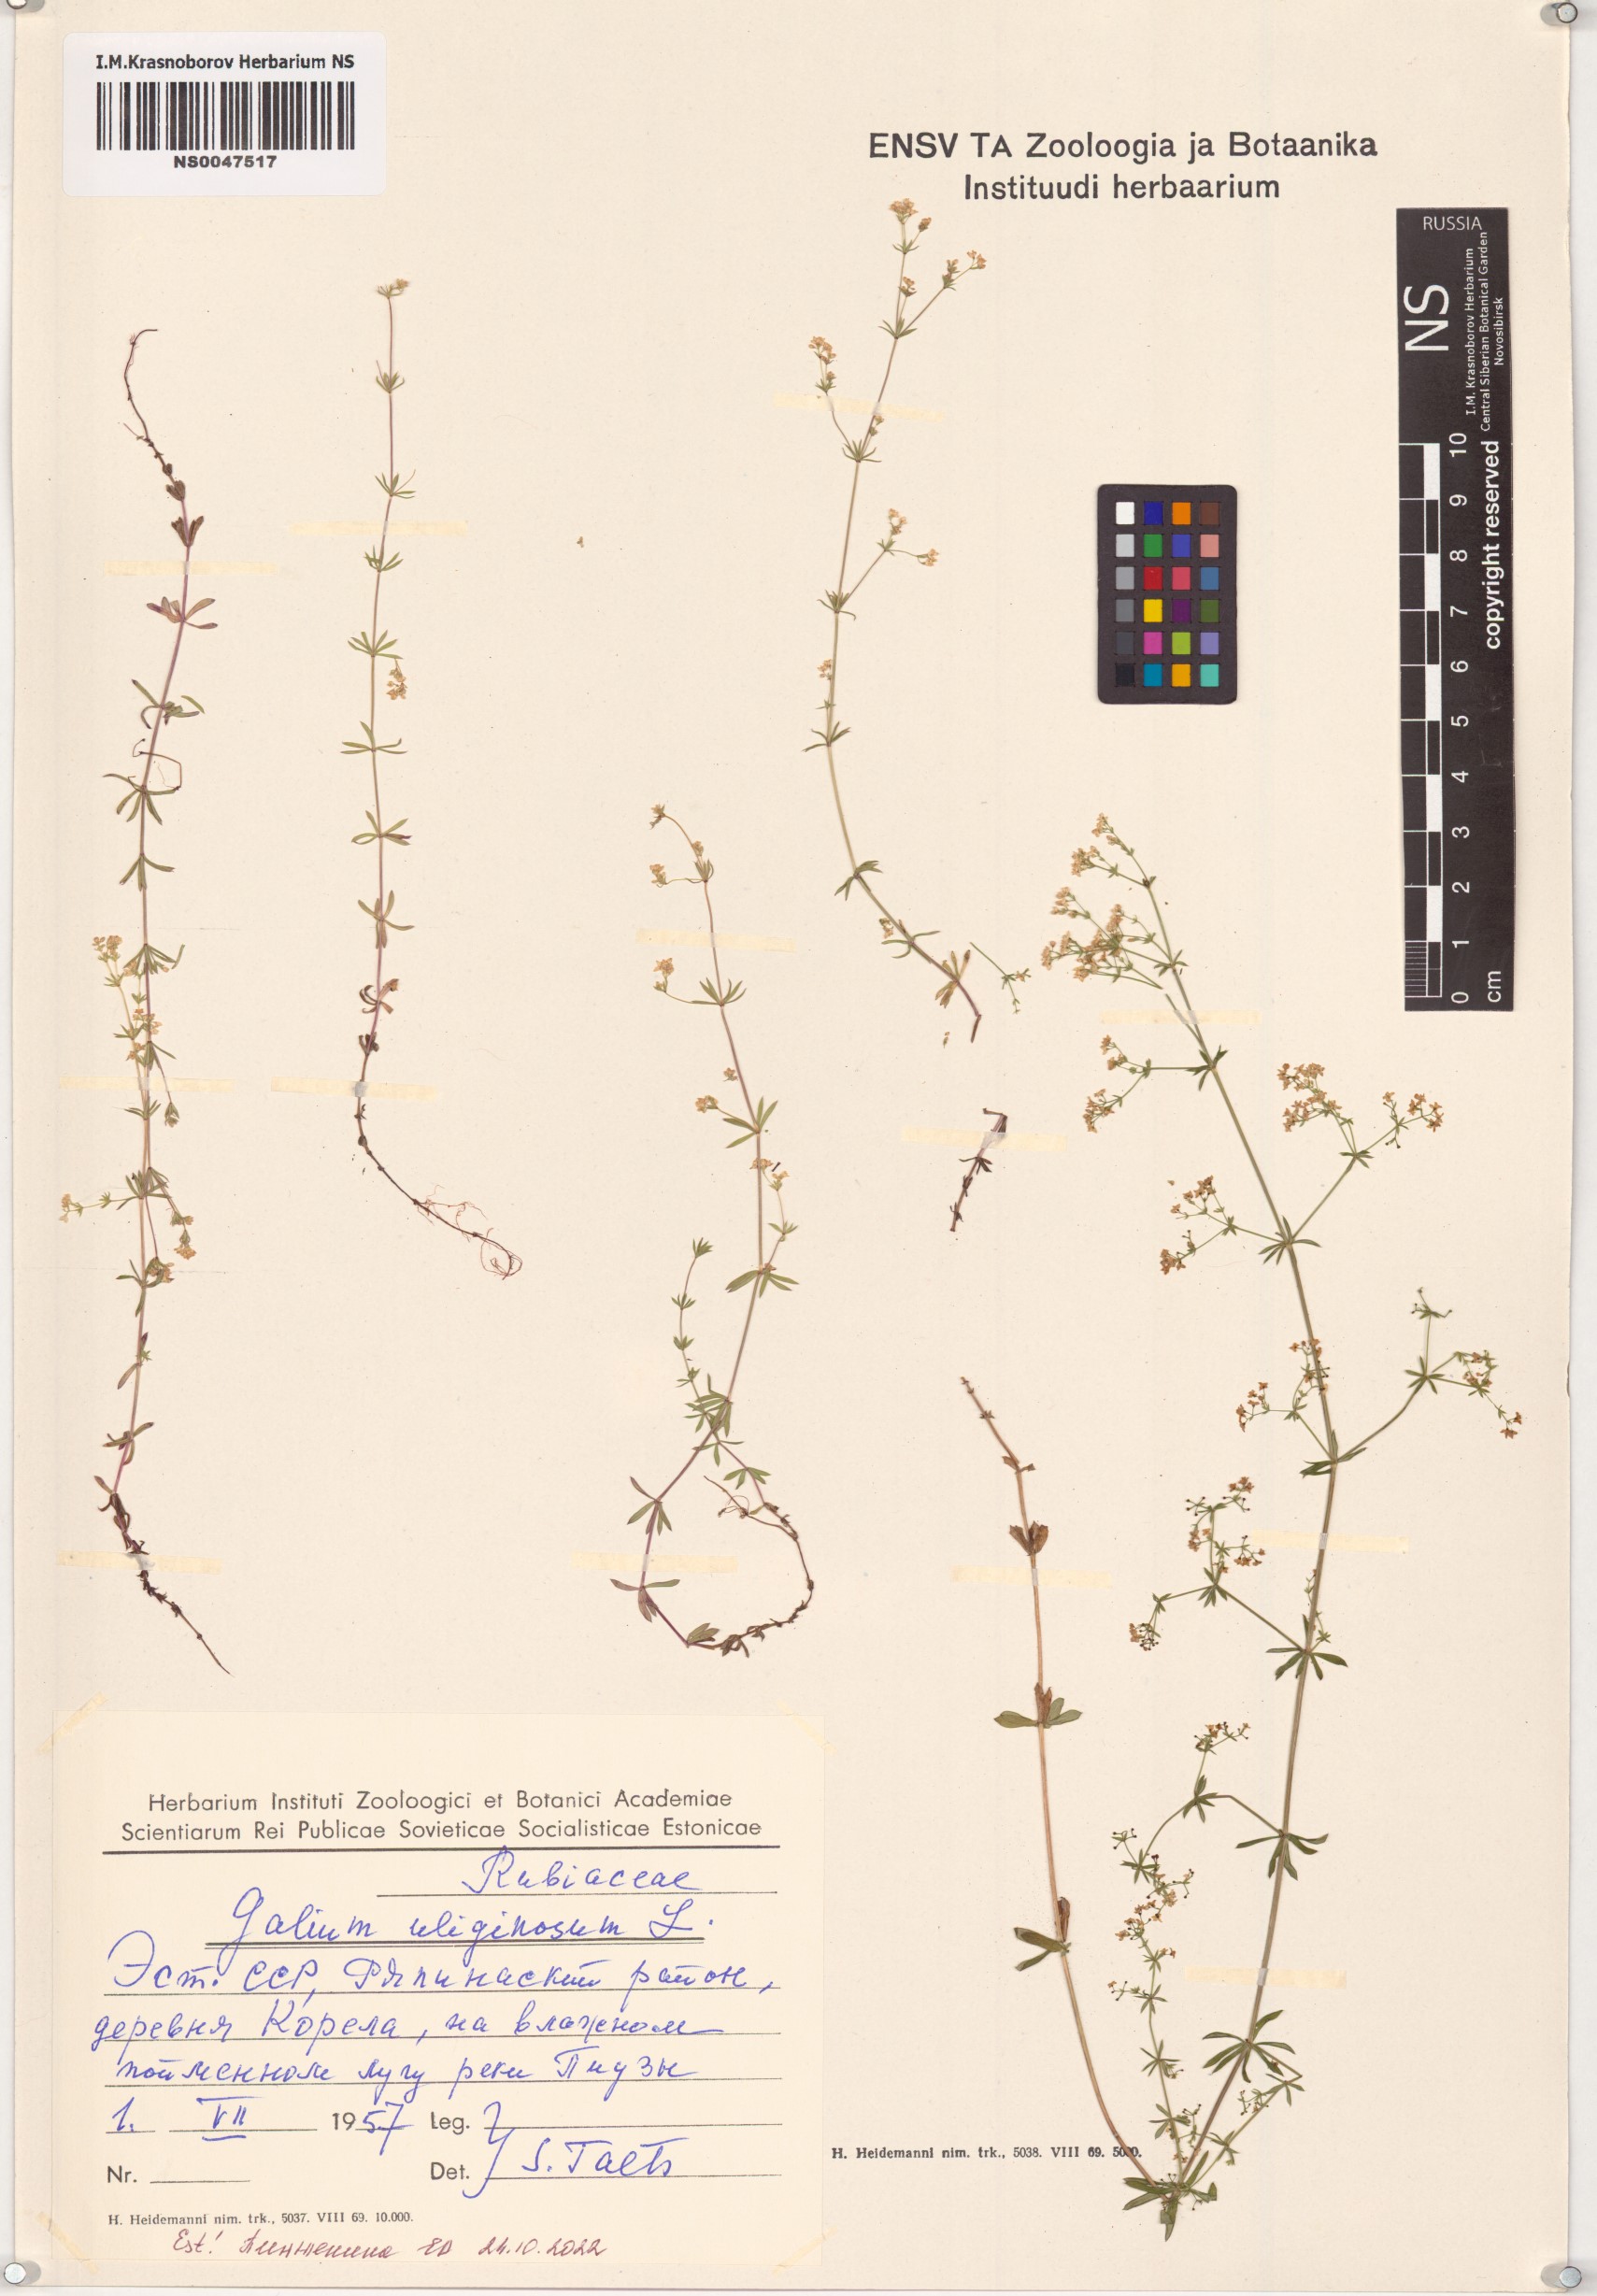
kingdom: Plantae
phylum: Tracheophyta
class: Magnoliopsida
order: Gentianales
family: Rubiaceae
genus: Galium
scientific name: Galium uliginosum
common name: Fen bedstraw
